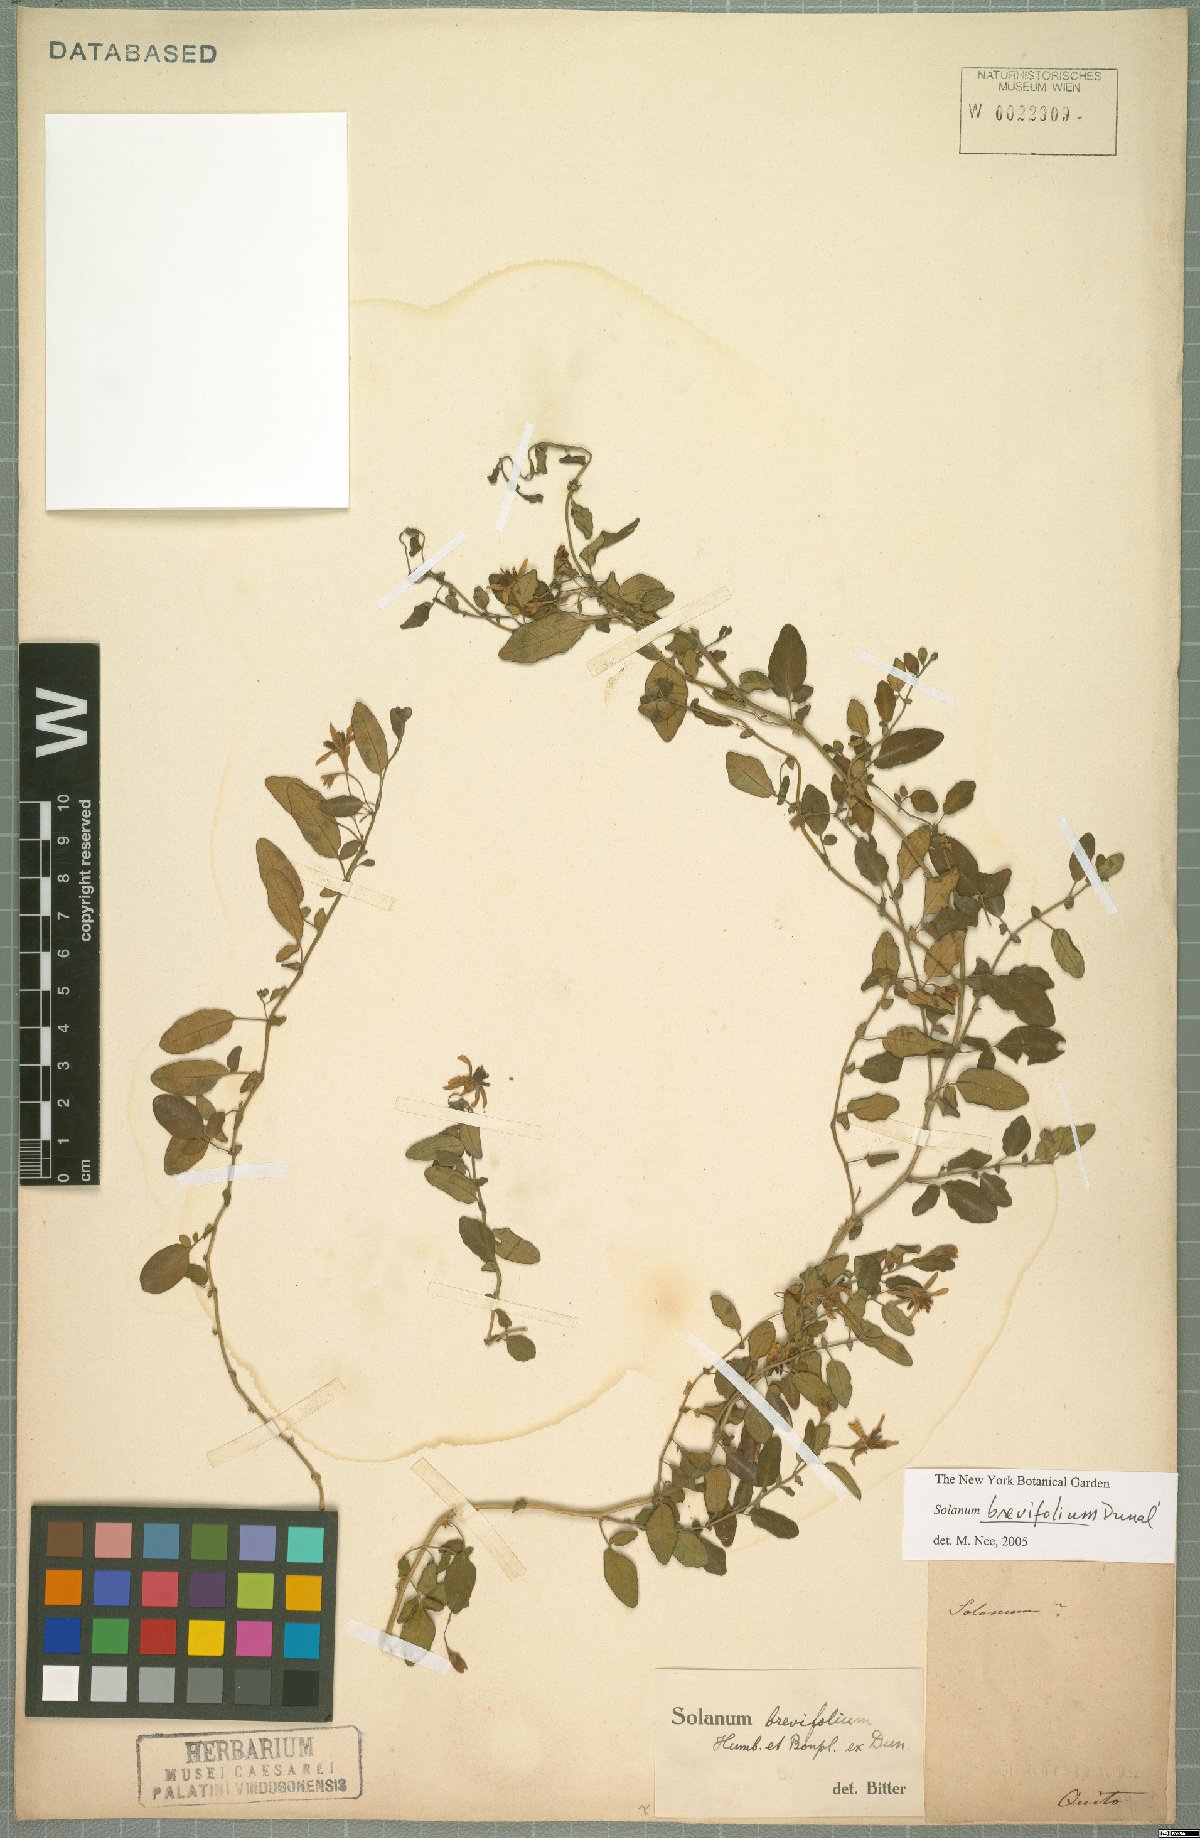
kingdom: Plantae
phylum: Tracheophyta
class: Magnoliopsida
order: Solanales
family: Solanaceae
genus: Solanum
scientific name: Solanum brevifolium
